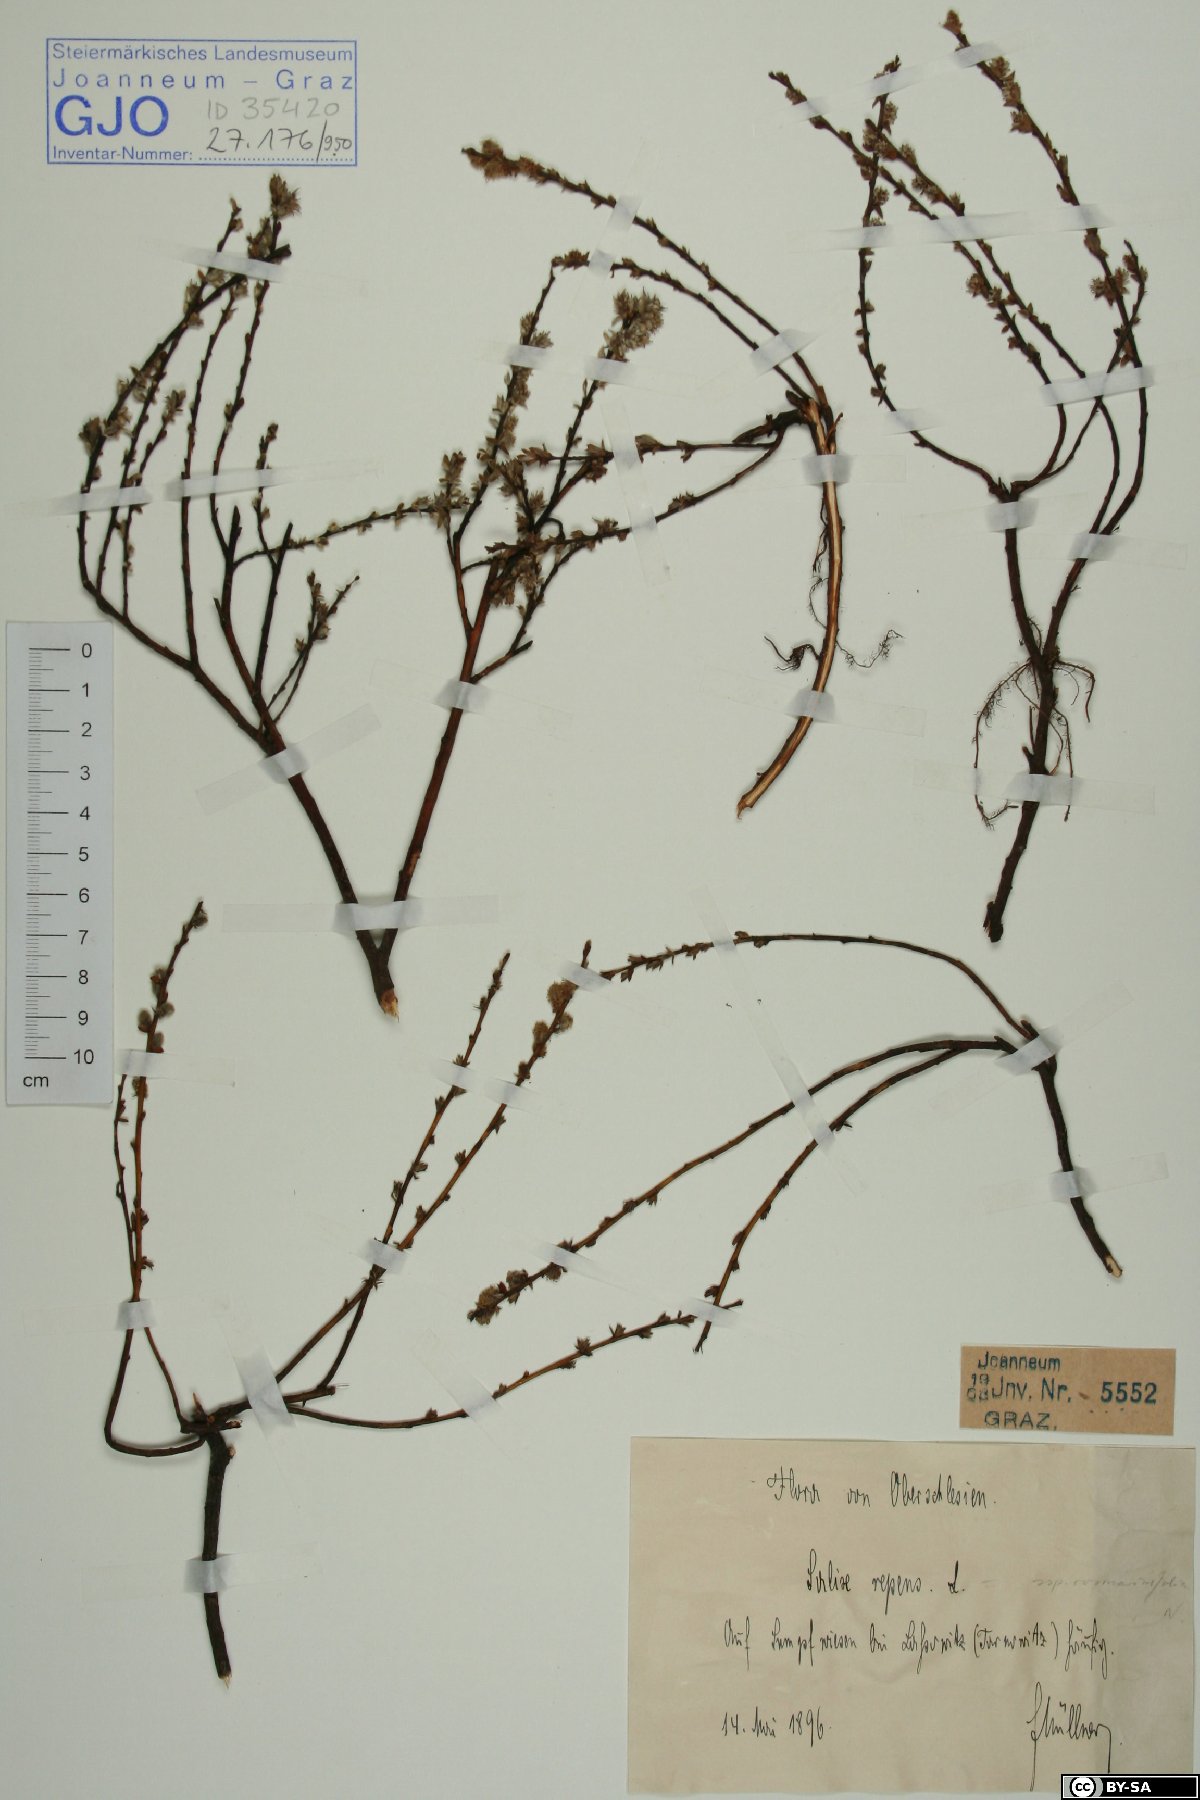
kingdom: Plantae
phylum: Tracheophyta
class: Magnoliopsida
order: Malpighiales
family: Salicaceae
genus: Salix
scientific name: Salix repens
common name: Creeping willow
